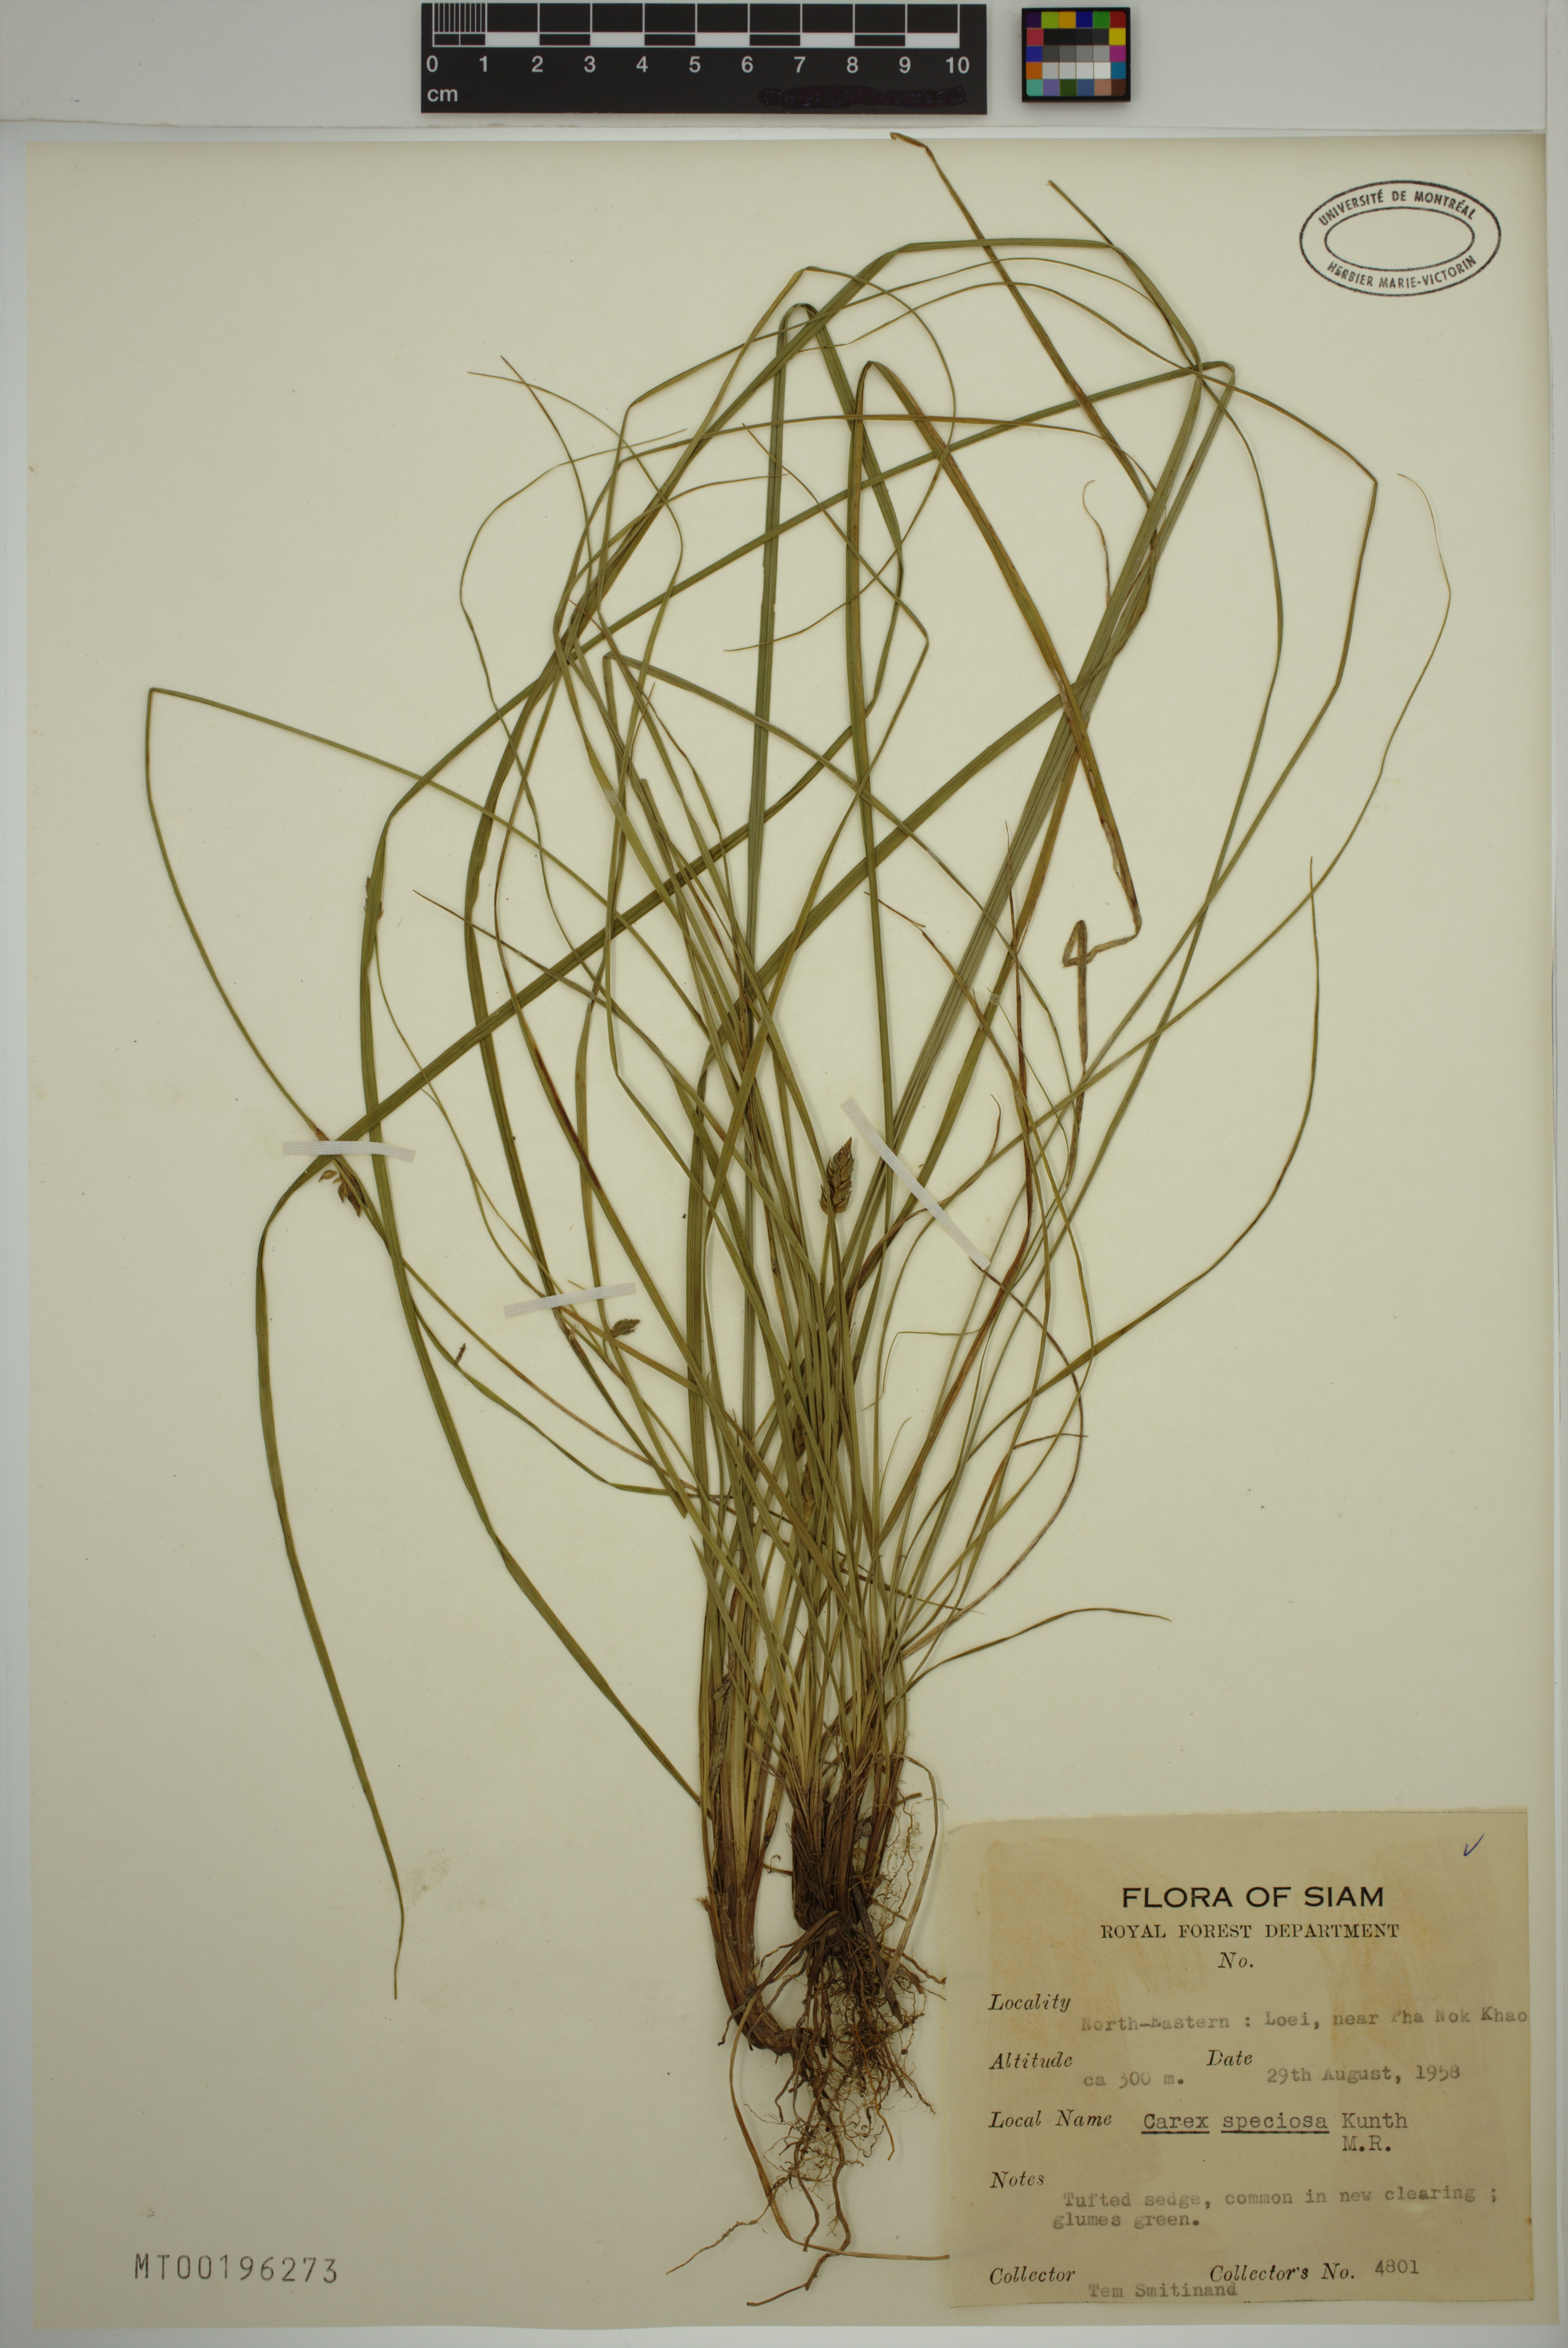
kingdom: Plantae
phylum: Tracheophyta
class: Liliopsida
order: Poales
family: Cyperaceae
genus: Carex
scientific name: Carex speciosa
